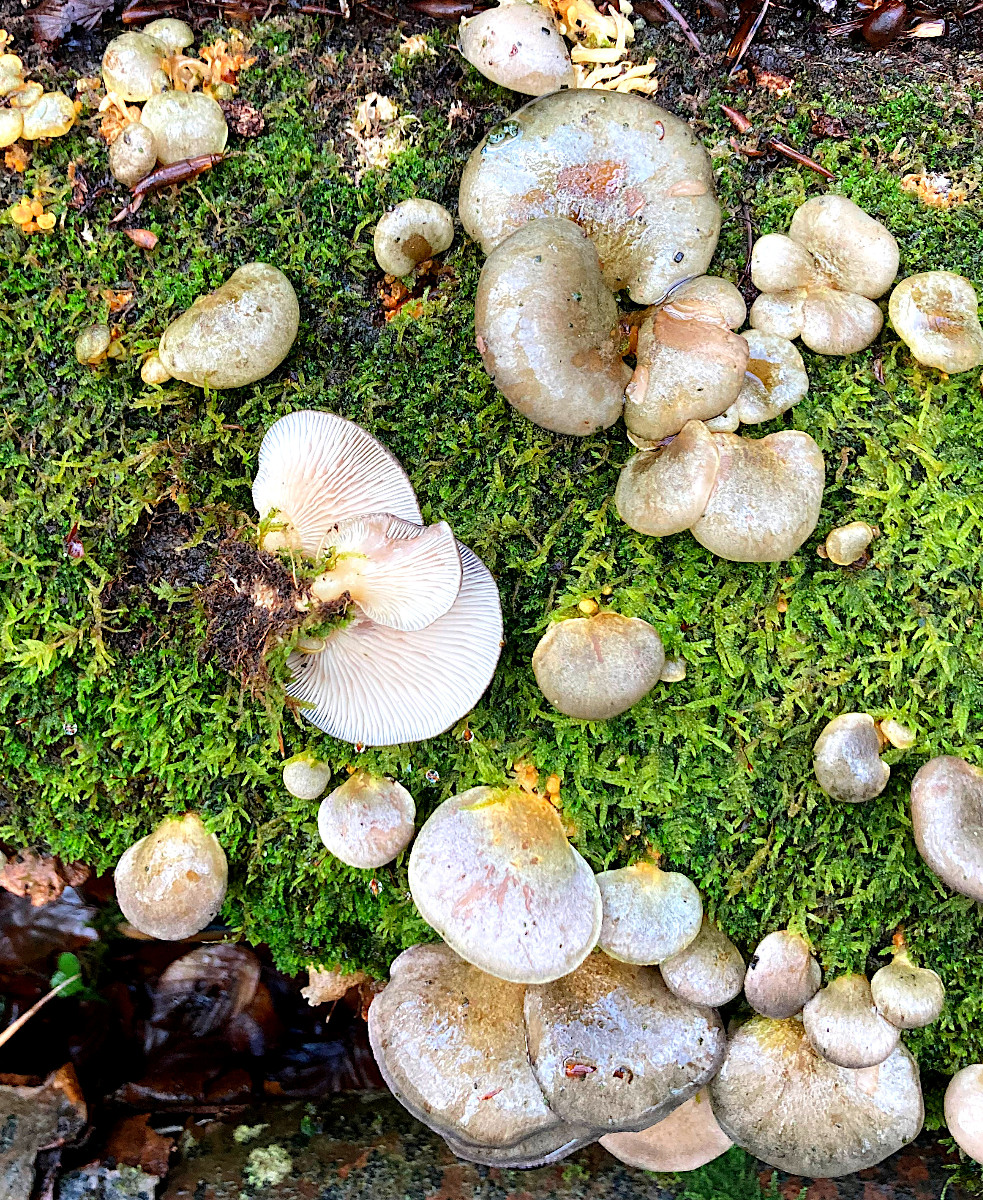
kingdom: Fungi
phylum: Basidiomycota
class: Agaricomycetes
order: Agaricales
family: Sarcomyxaceae
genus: Sarcomyxa
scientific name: Sarcomyxa serotina
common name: gummihat
